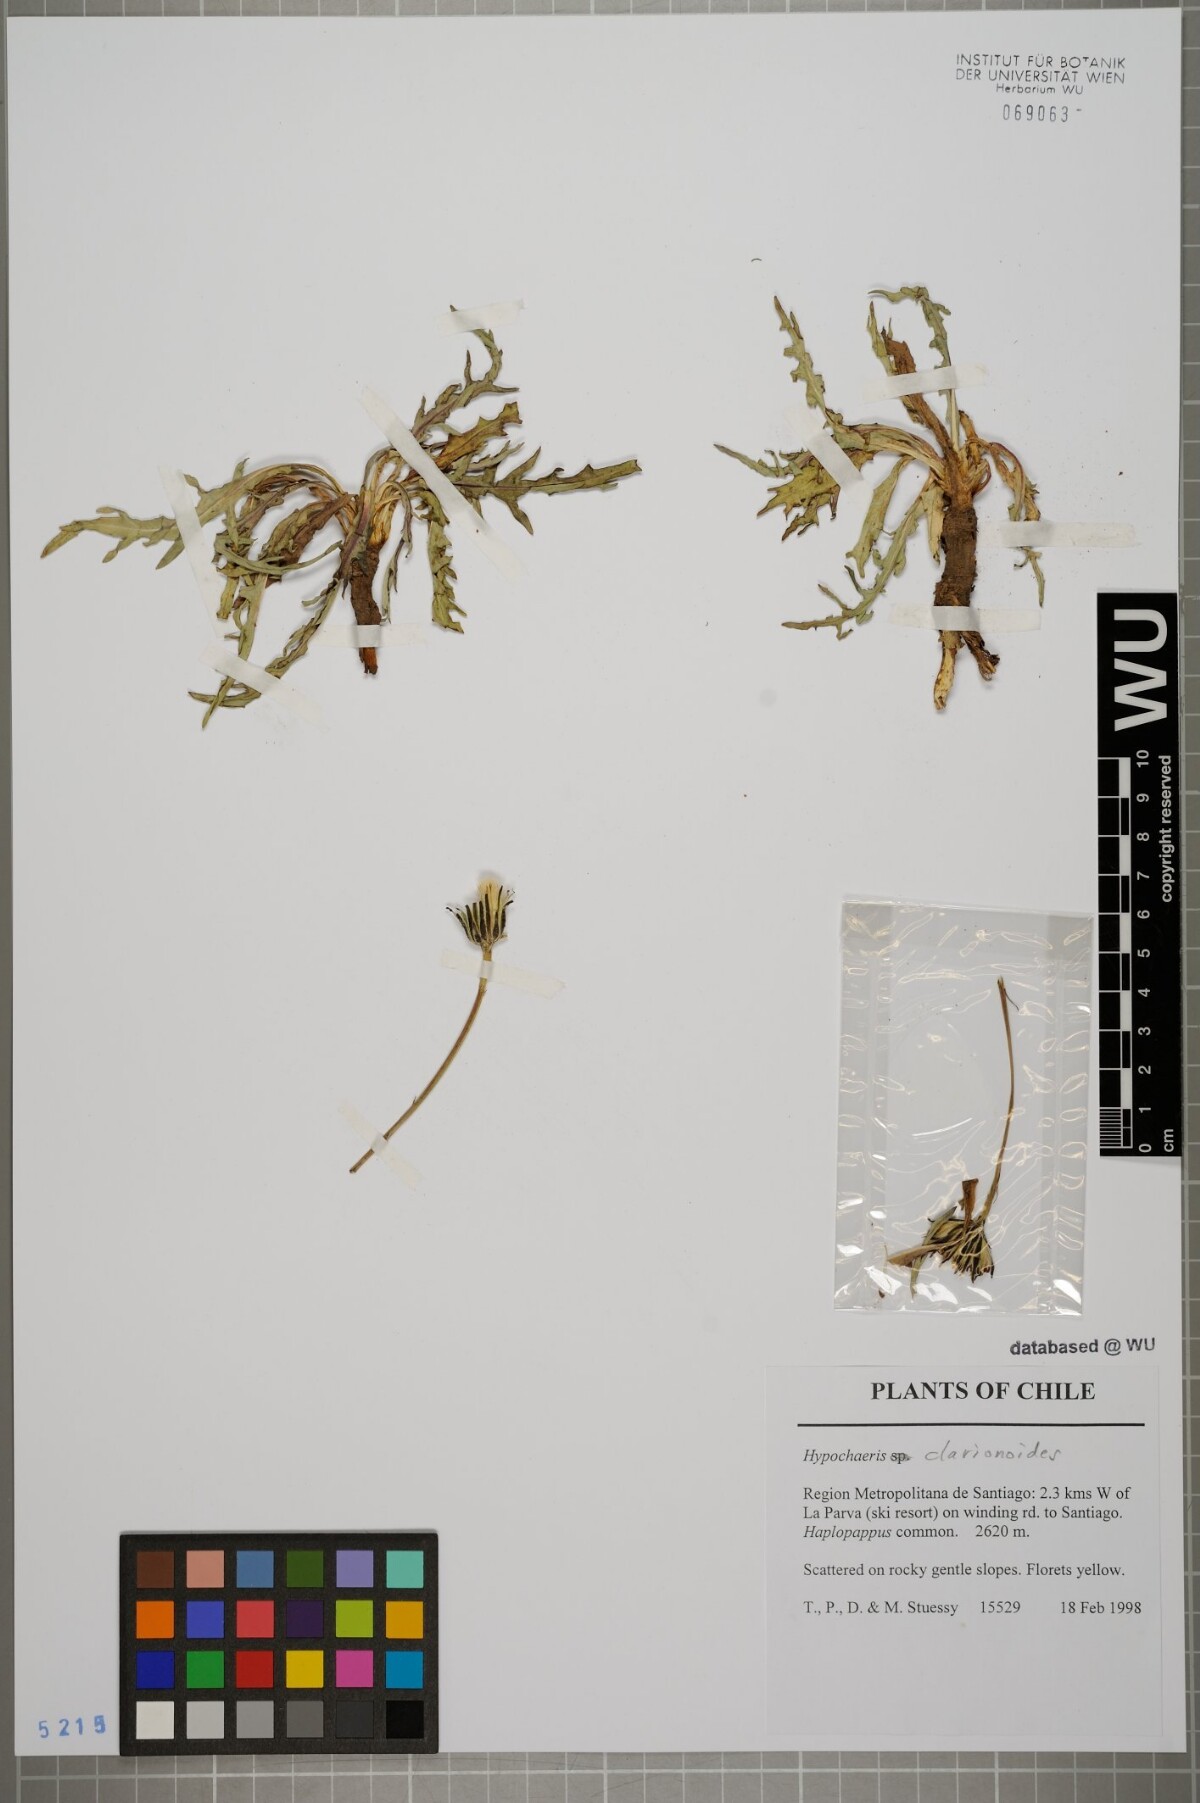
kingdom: Plantae
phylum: Tracheophyta
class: Magnoliopsida
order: Asterales
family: Asteraceae
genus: Hypochaeris
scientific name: Hypochaeris clarionoides
